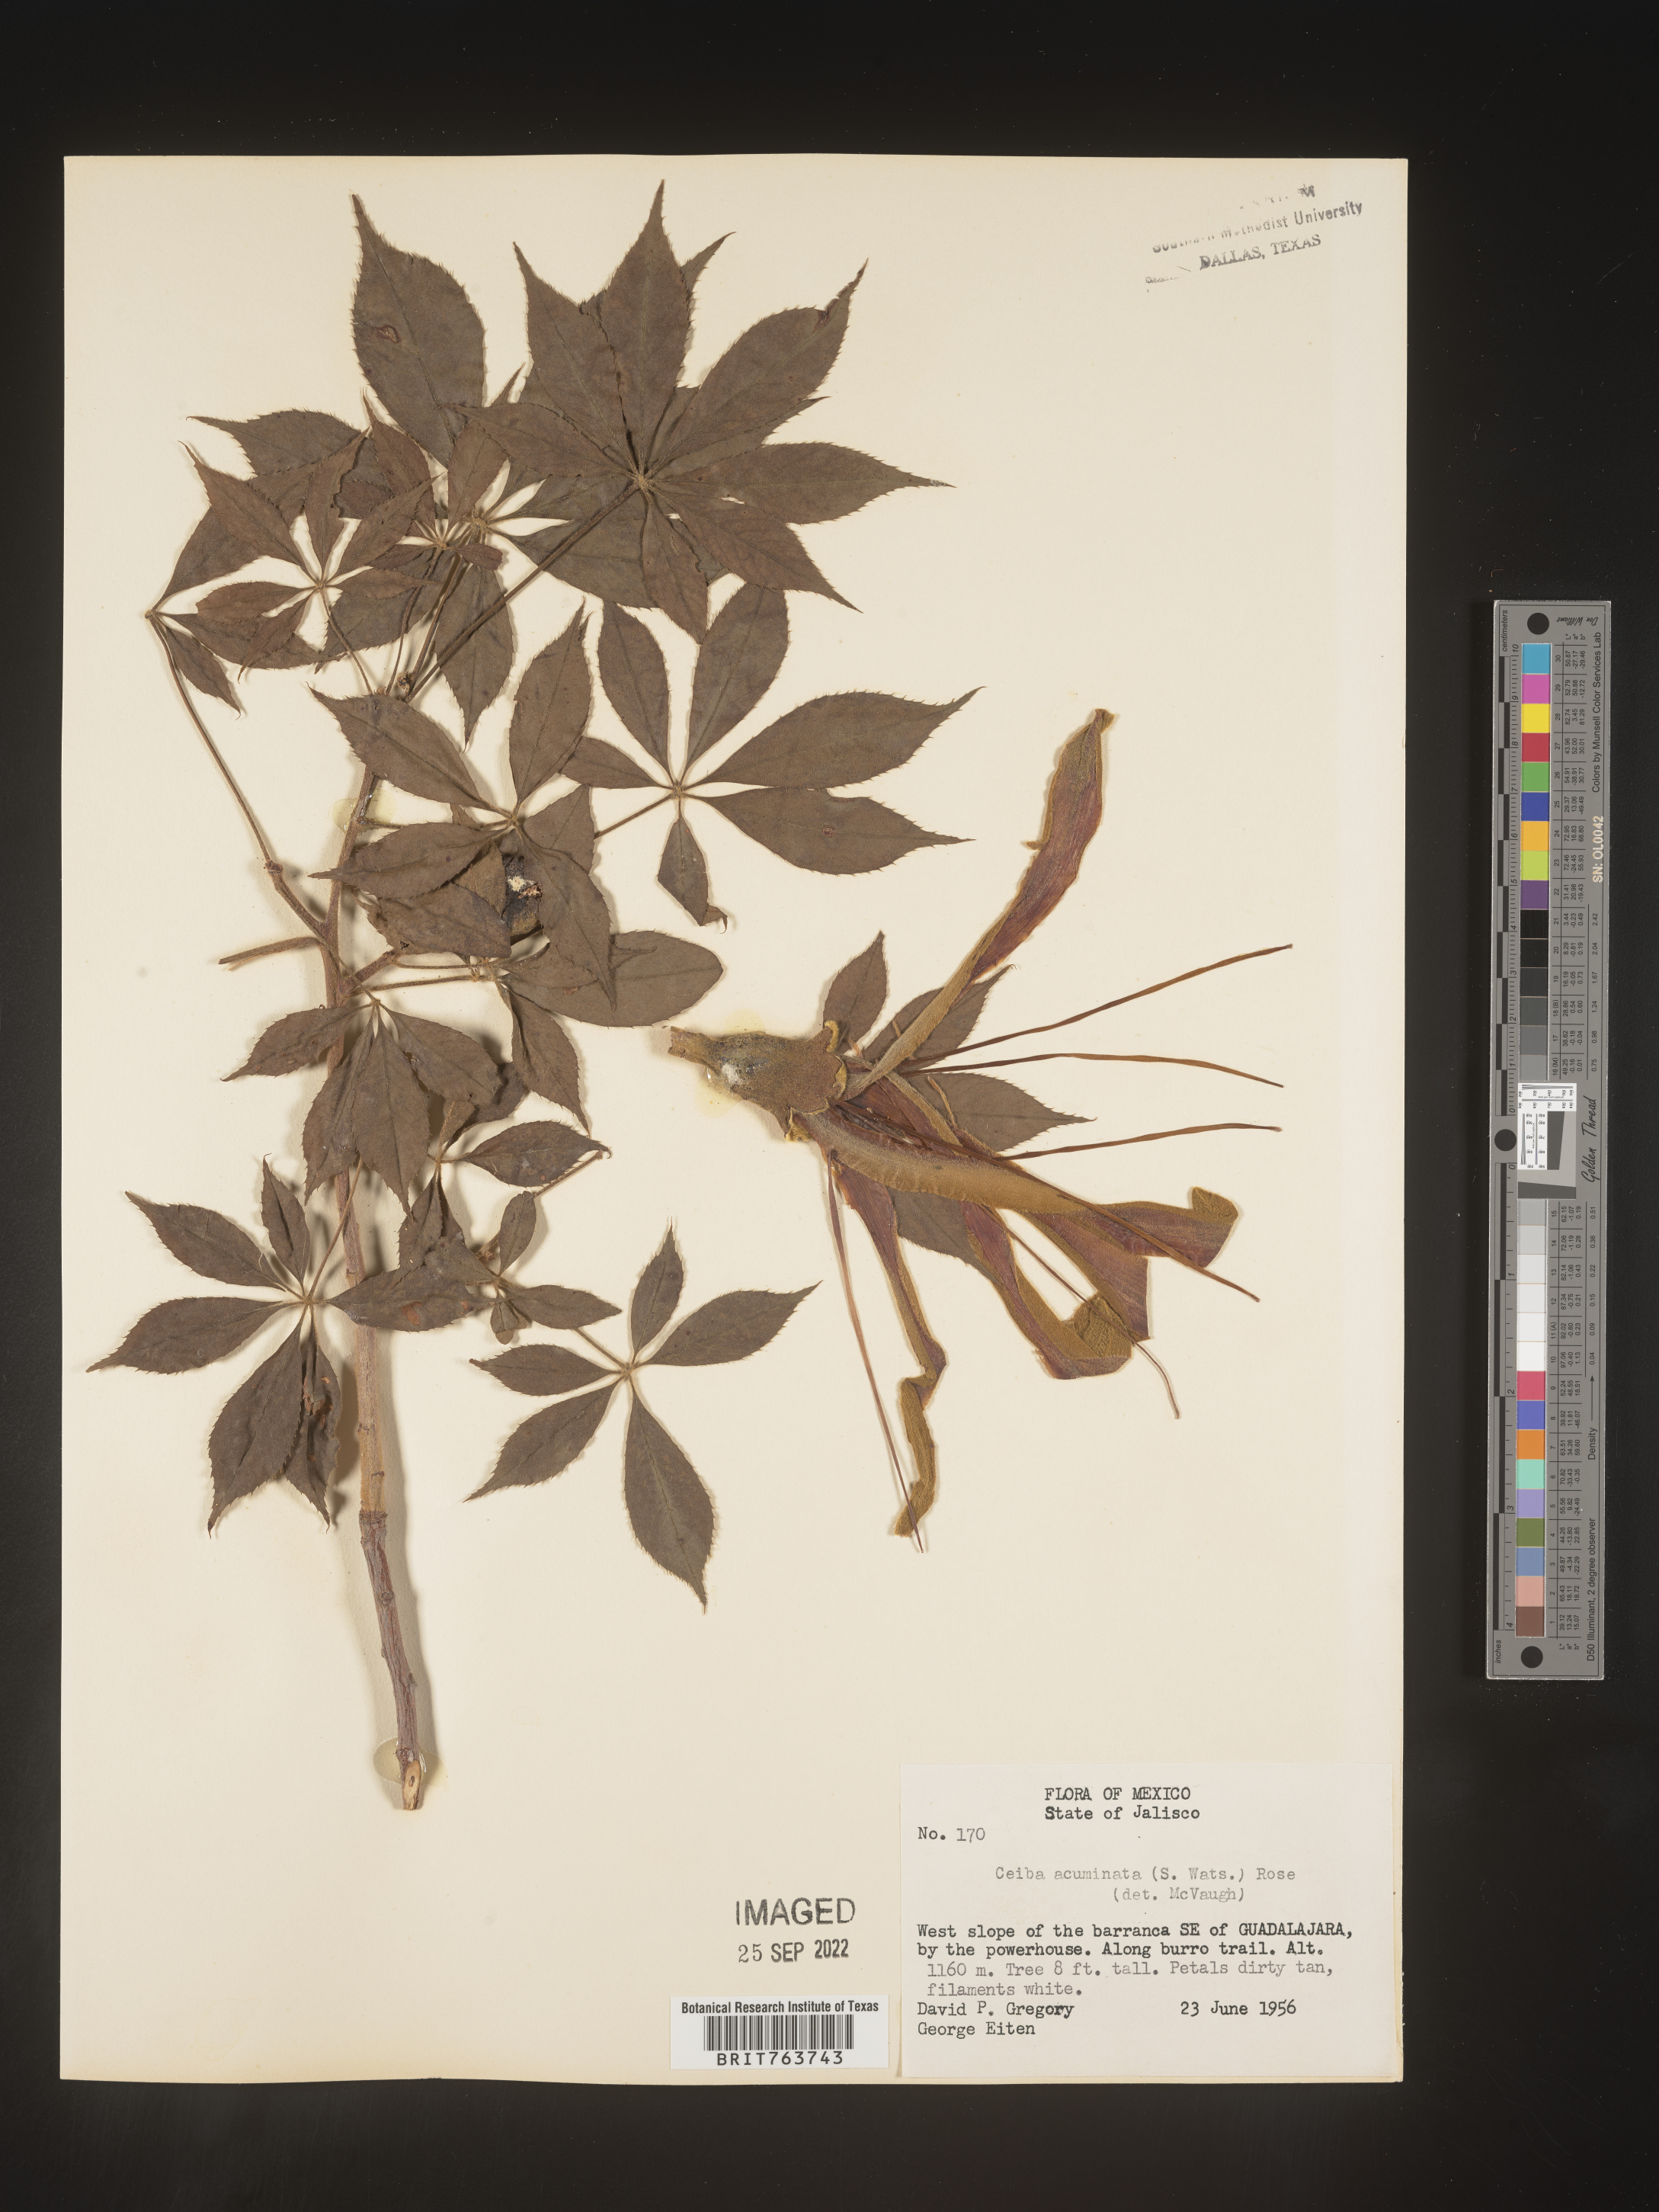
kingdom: Plantae
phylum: Tracheophyta
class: Magnoliopsida
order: Malvales
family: Malvaceae
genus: Ceiba
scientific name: Ceiba
